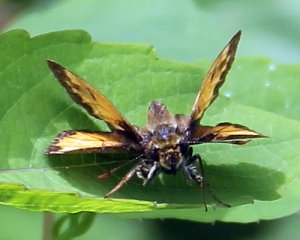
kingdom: Animalia
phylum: Arthropoda
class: Insecta
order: Lepidoptera
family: Hesperiidae
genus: Lon
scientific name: Lon hobomok
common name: Hobomok Skipper
